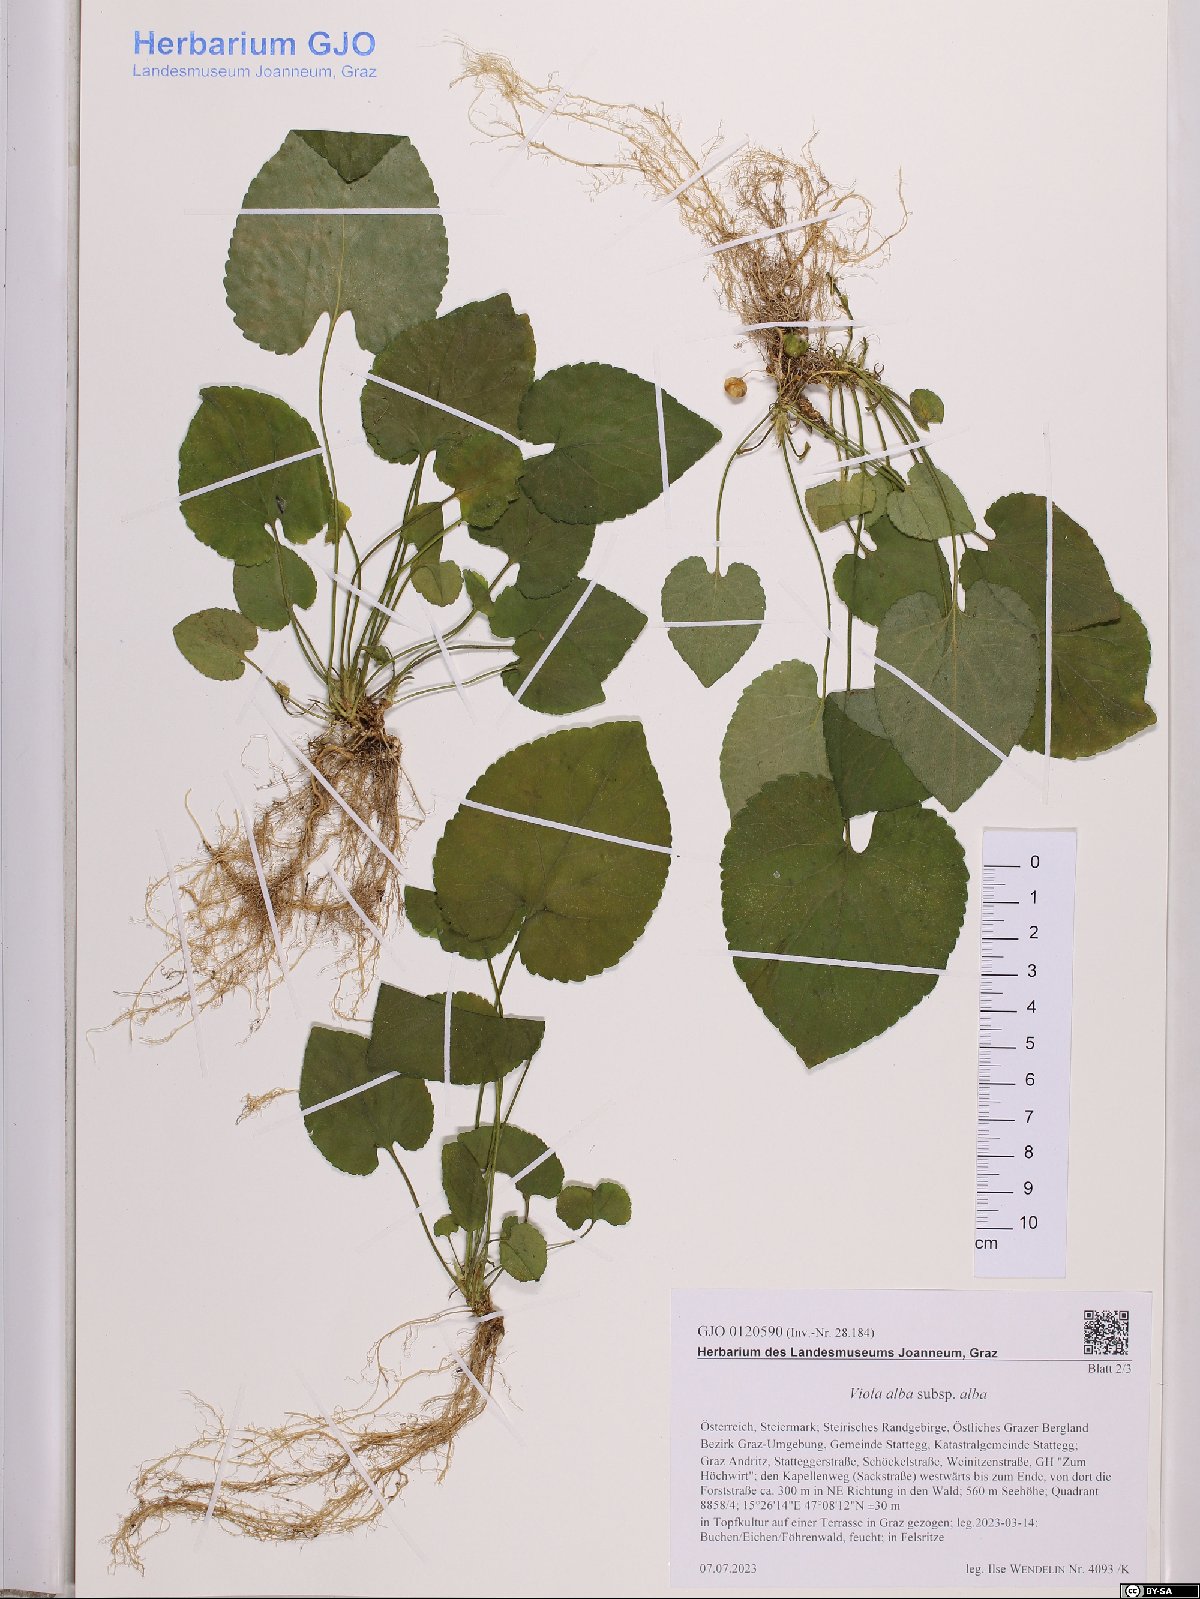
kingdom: Plantae
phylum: Tracheophyta
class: Magnoliopsida
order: Malpighiales
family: Violaceae
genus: Viola
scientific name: Viola alba
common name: White violet
